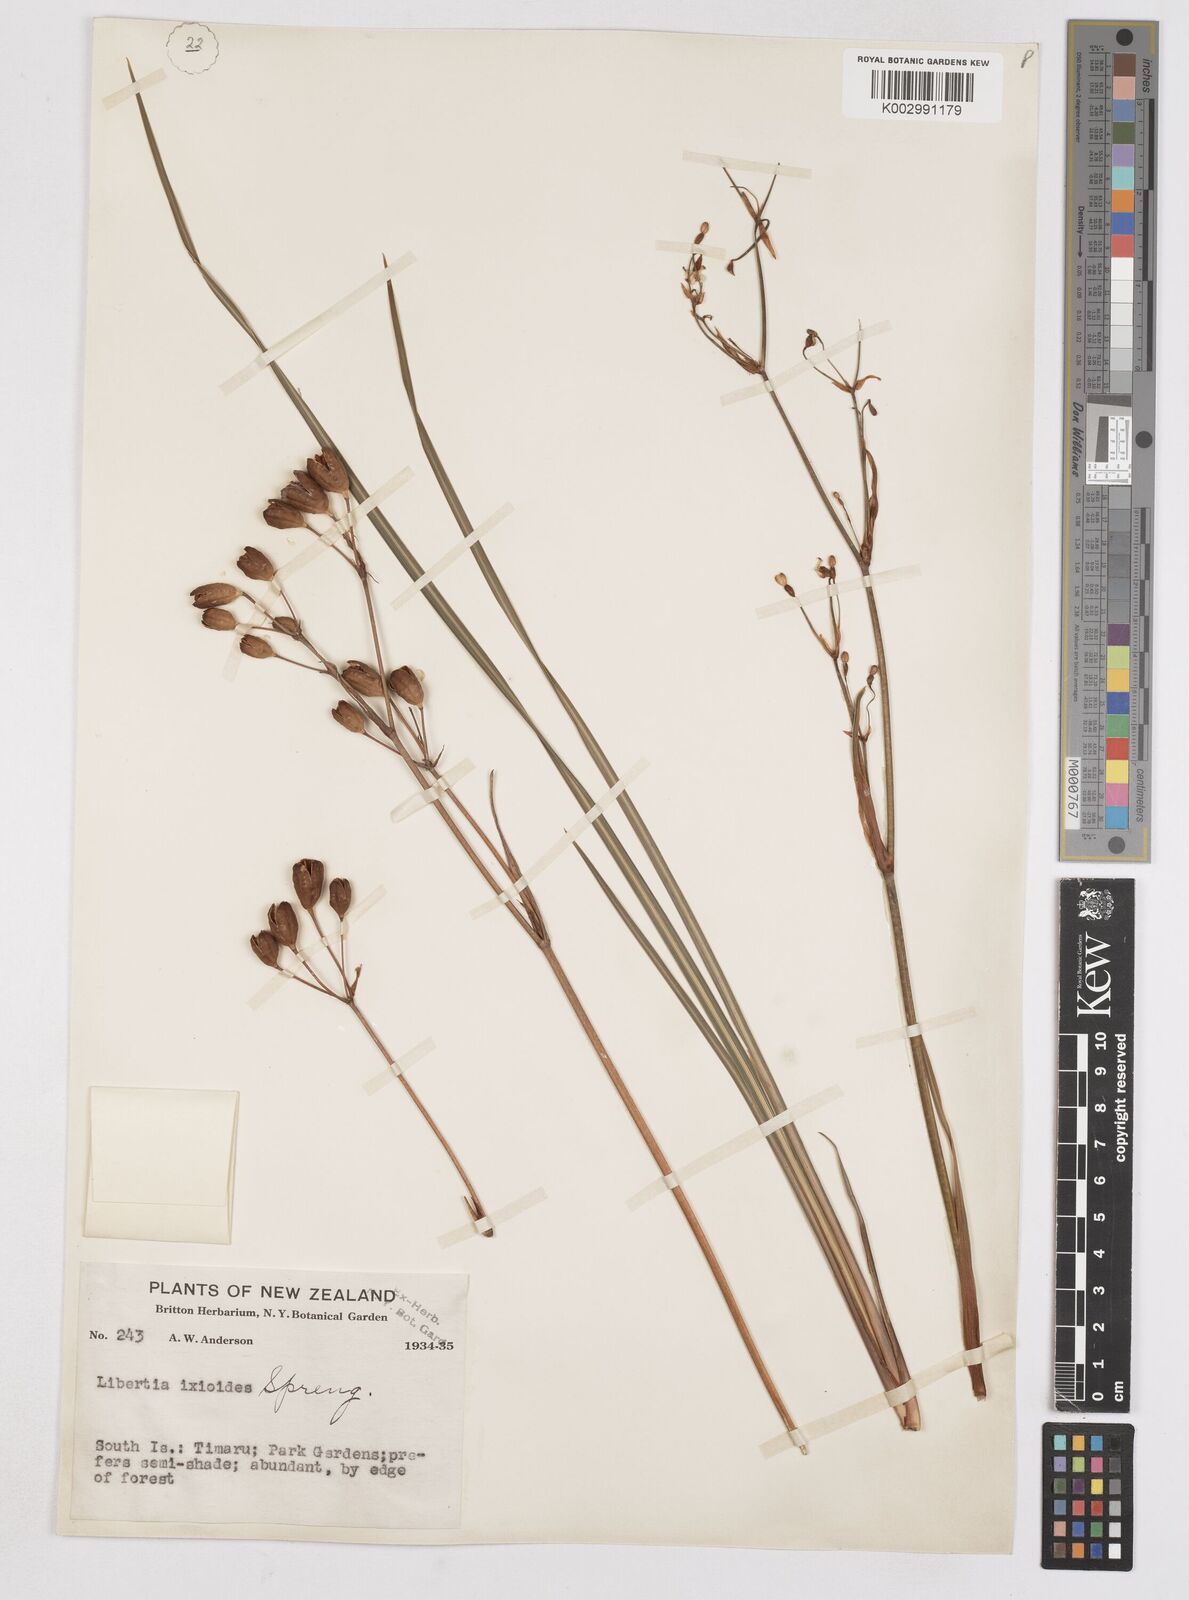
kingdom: Plantae
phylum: Tracheophyta
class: Liliopsida
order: Asparagales
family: Iridaceae
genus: Libertia
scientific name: Libertia ixioides
